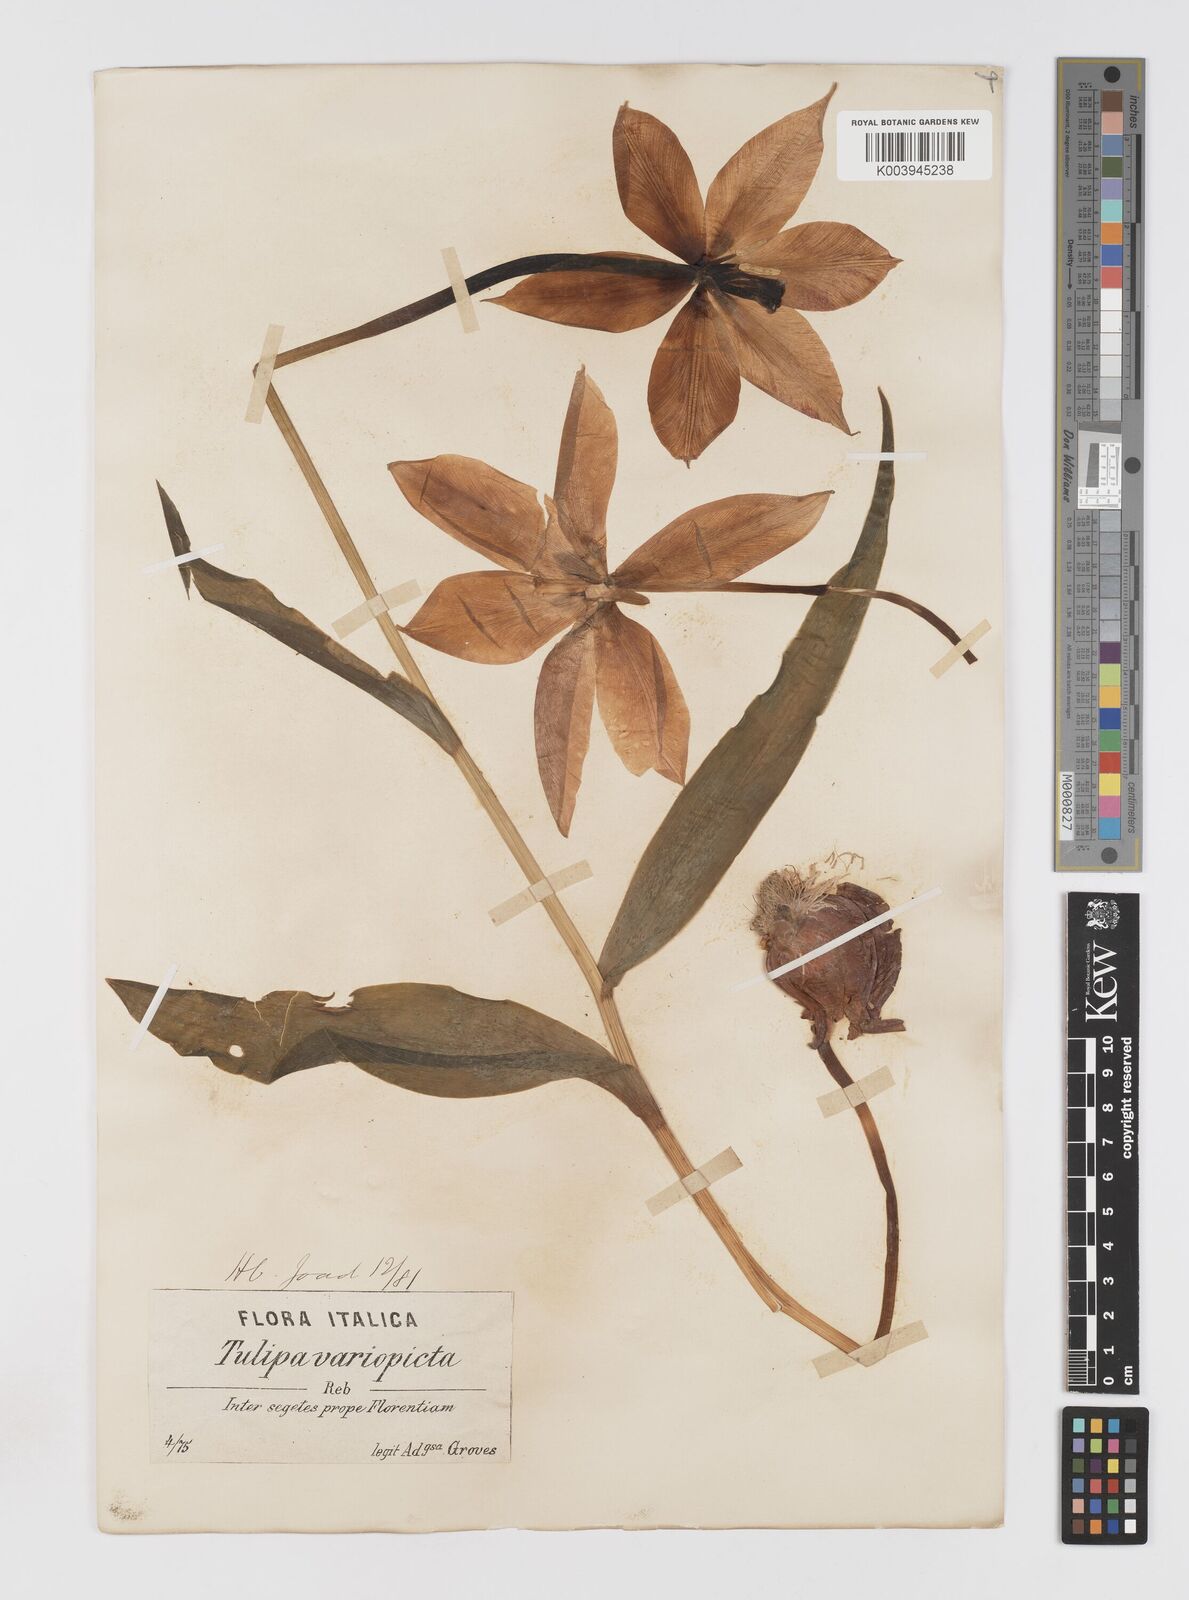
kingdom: Plantae
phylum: Tracheophyta
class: Liliopsida
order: Liliales
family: Liliaceae
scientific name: Liliaceae
